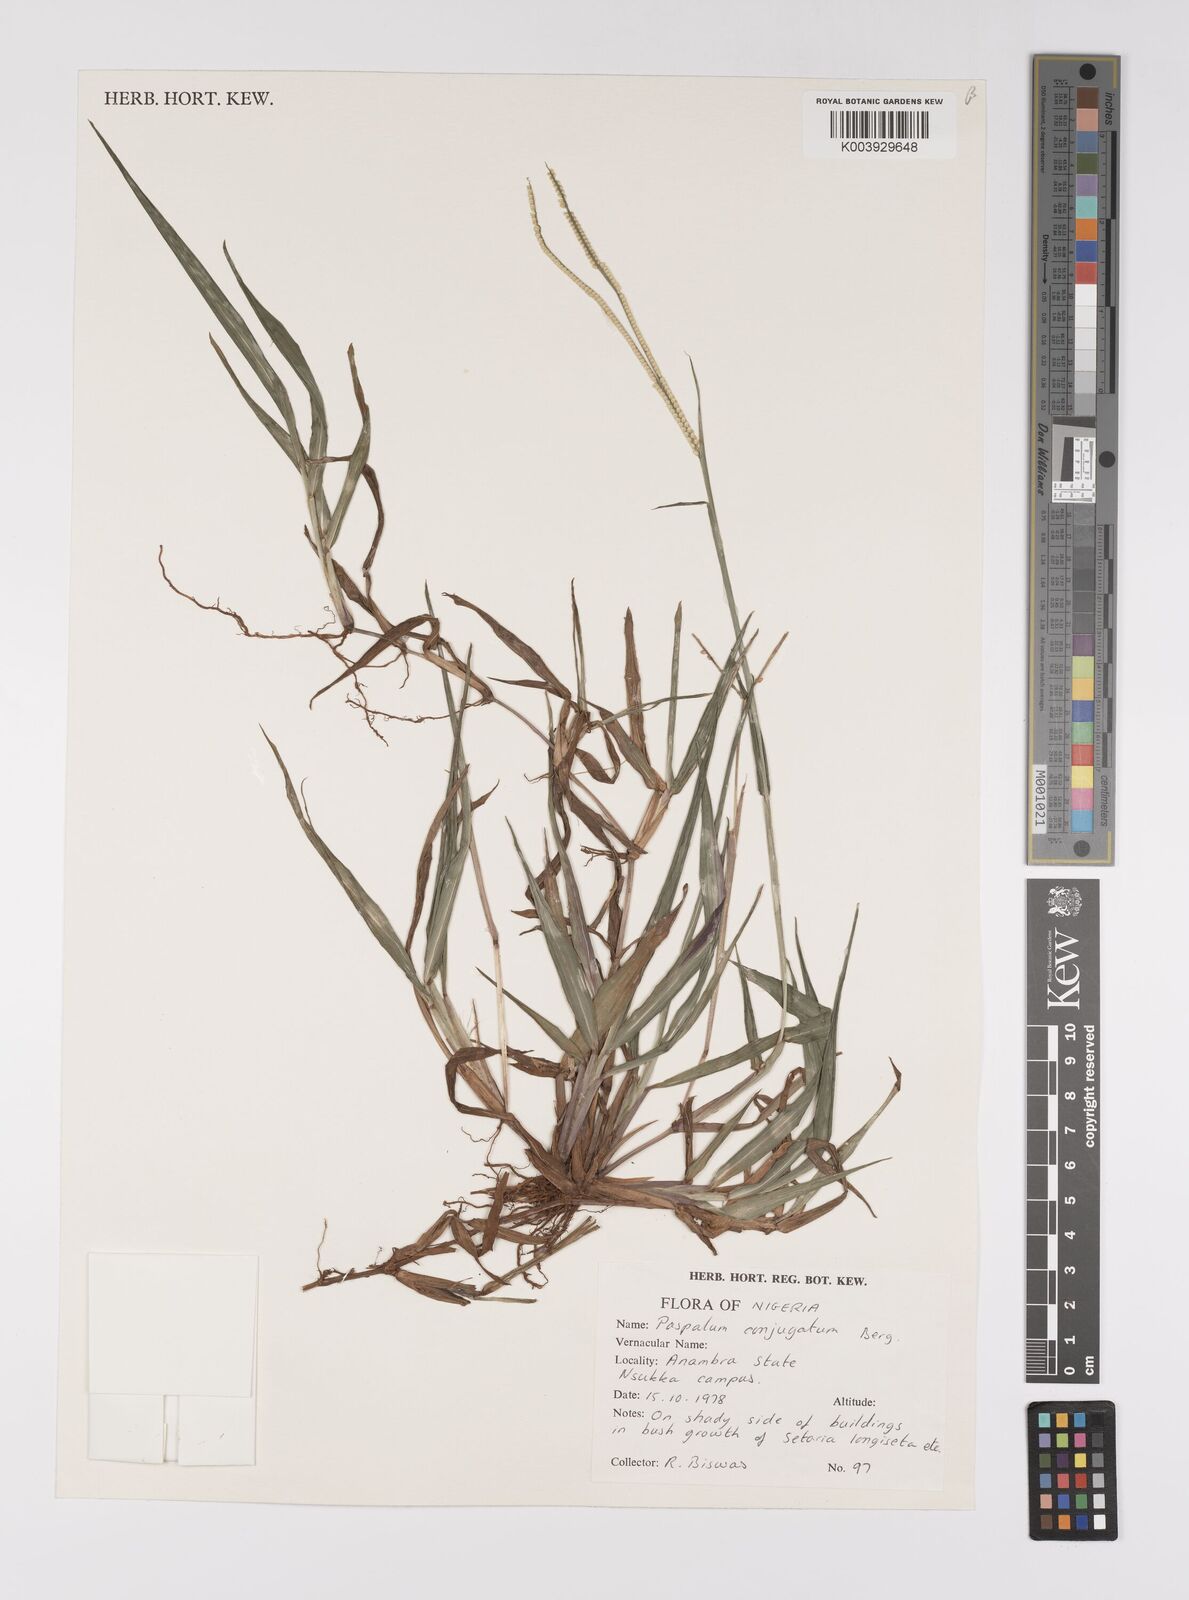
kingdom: Plantae
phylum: Tracheophyta
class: Liliopsida
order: Poales
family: Poaceae
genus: Paspalum
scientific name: Paspalum conjugatum
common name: Hilograss
